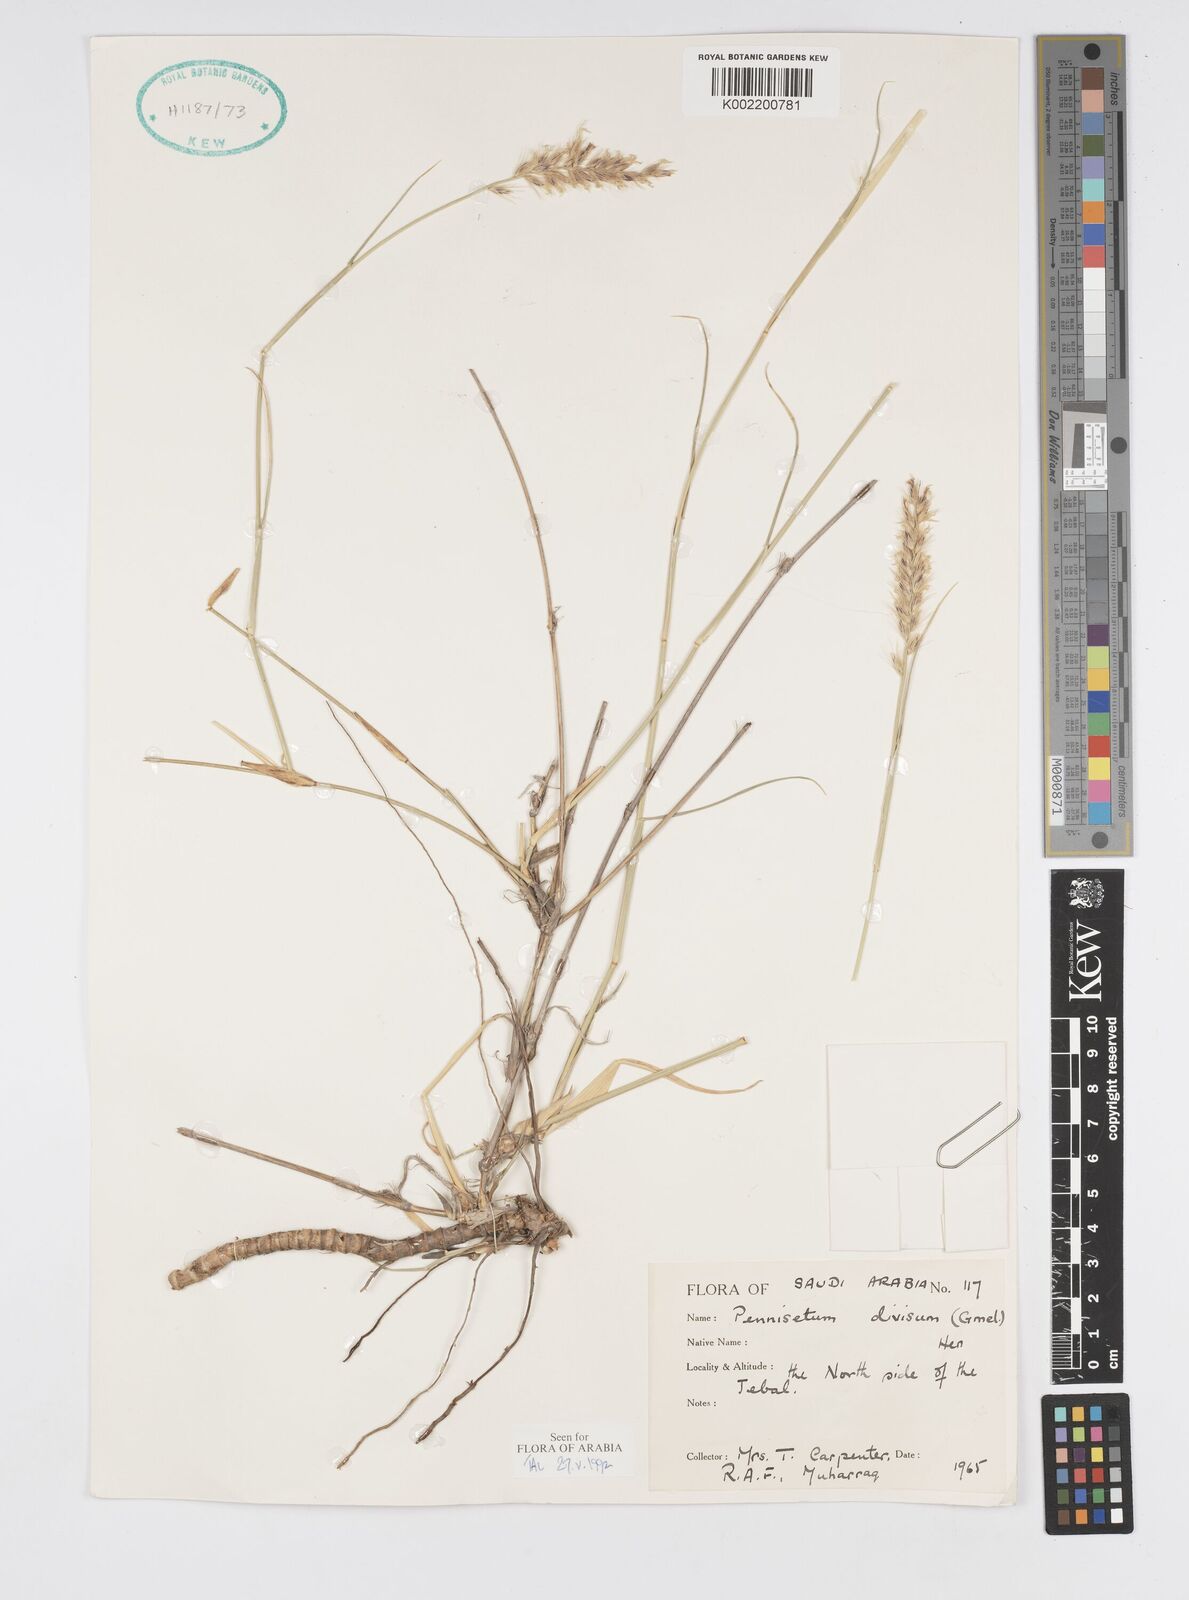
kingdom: Plantae
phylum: Tracheophyta
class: Liliopsida
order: Poales
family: Poaceae
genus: Cenchrus
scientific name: Cenchrus divisus
